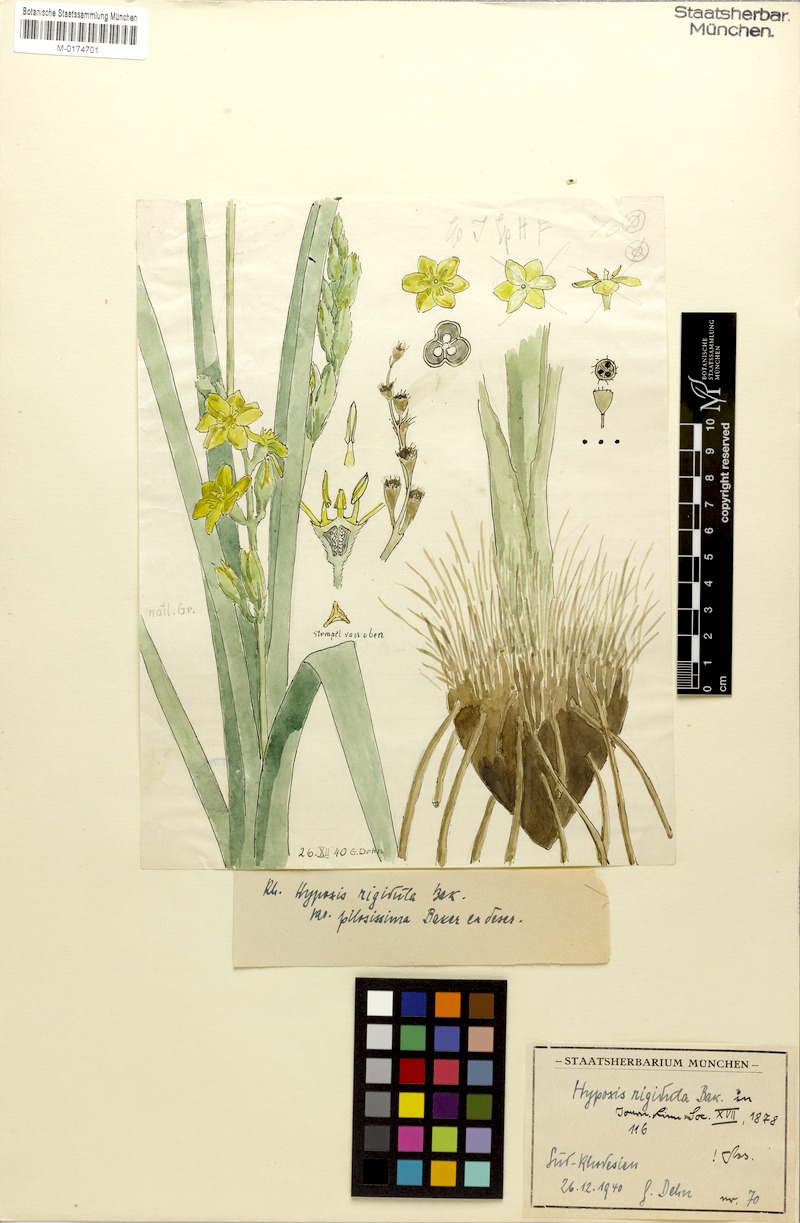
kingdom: Plantae
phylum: Tracheophyta
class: Liliopsida
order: Asparagales
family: Hypoxidaceae
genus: Hypoxis
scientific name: Hypoxis rigidula
